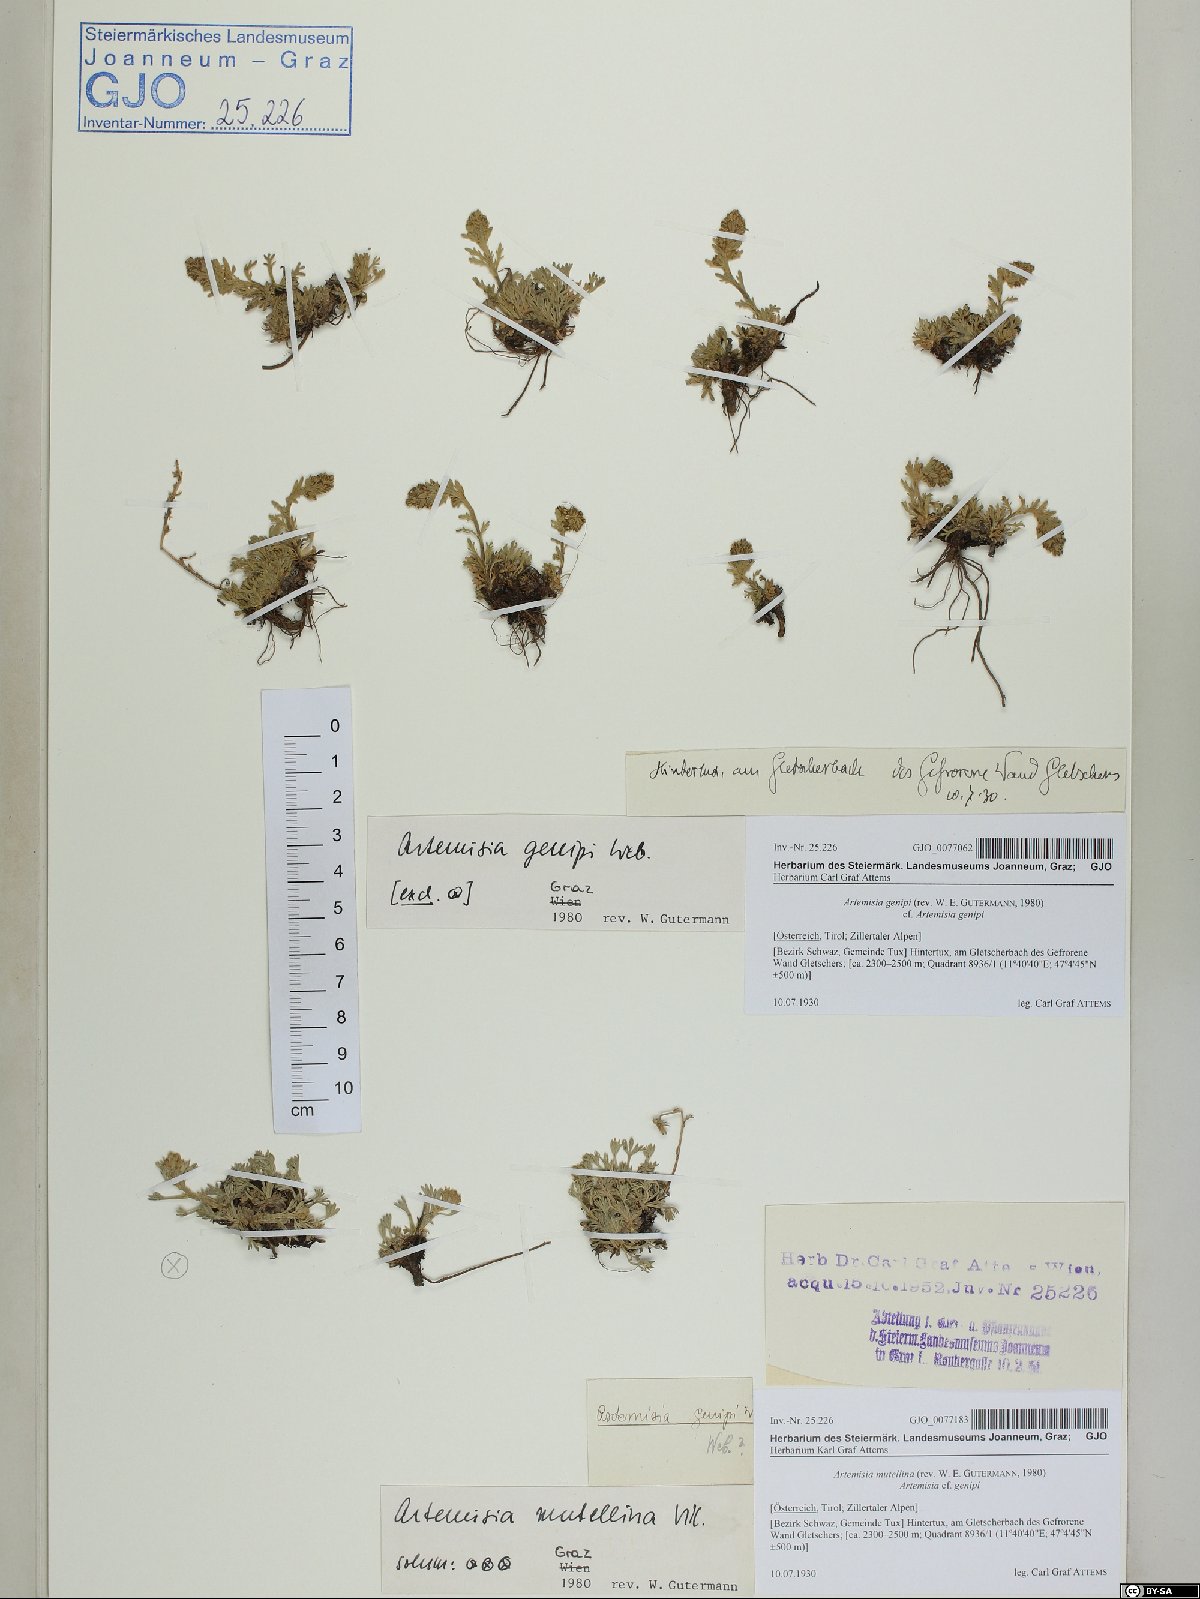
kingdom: Plantae
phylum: Tracheophyta
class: Magnoliopsida
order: Asterales
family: Asteraceae
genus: Artemisia
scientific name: Artemisia mutellina
